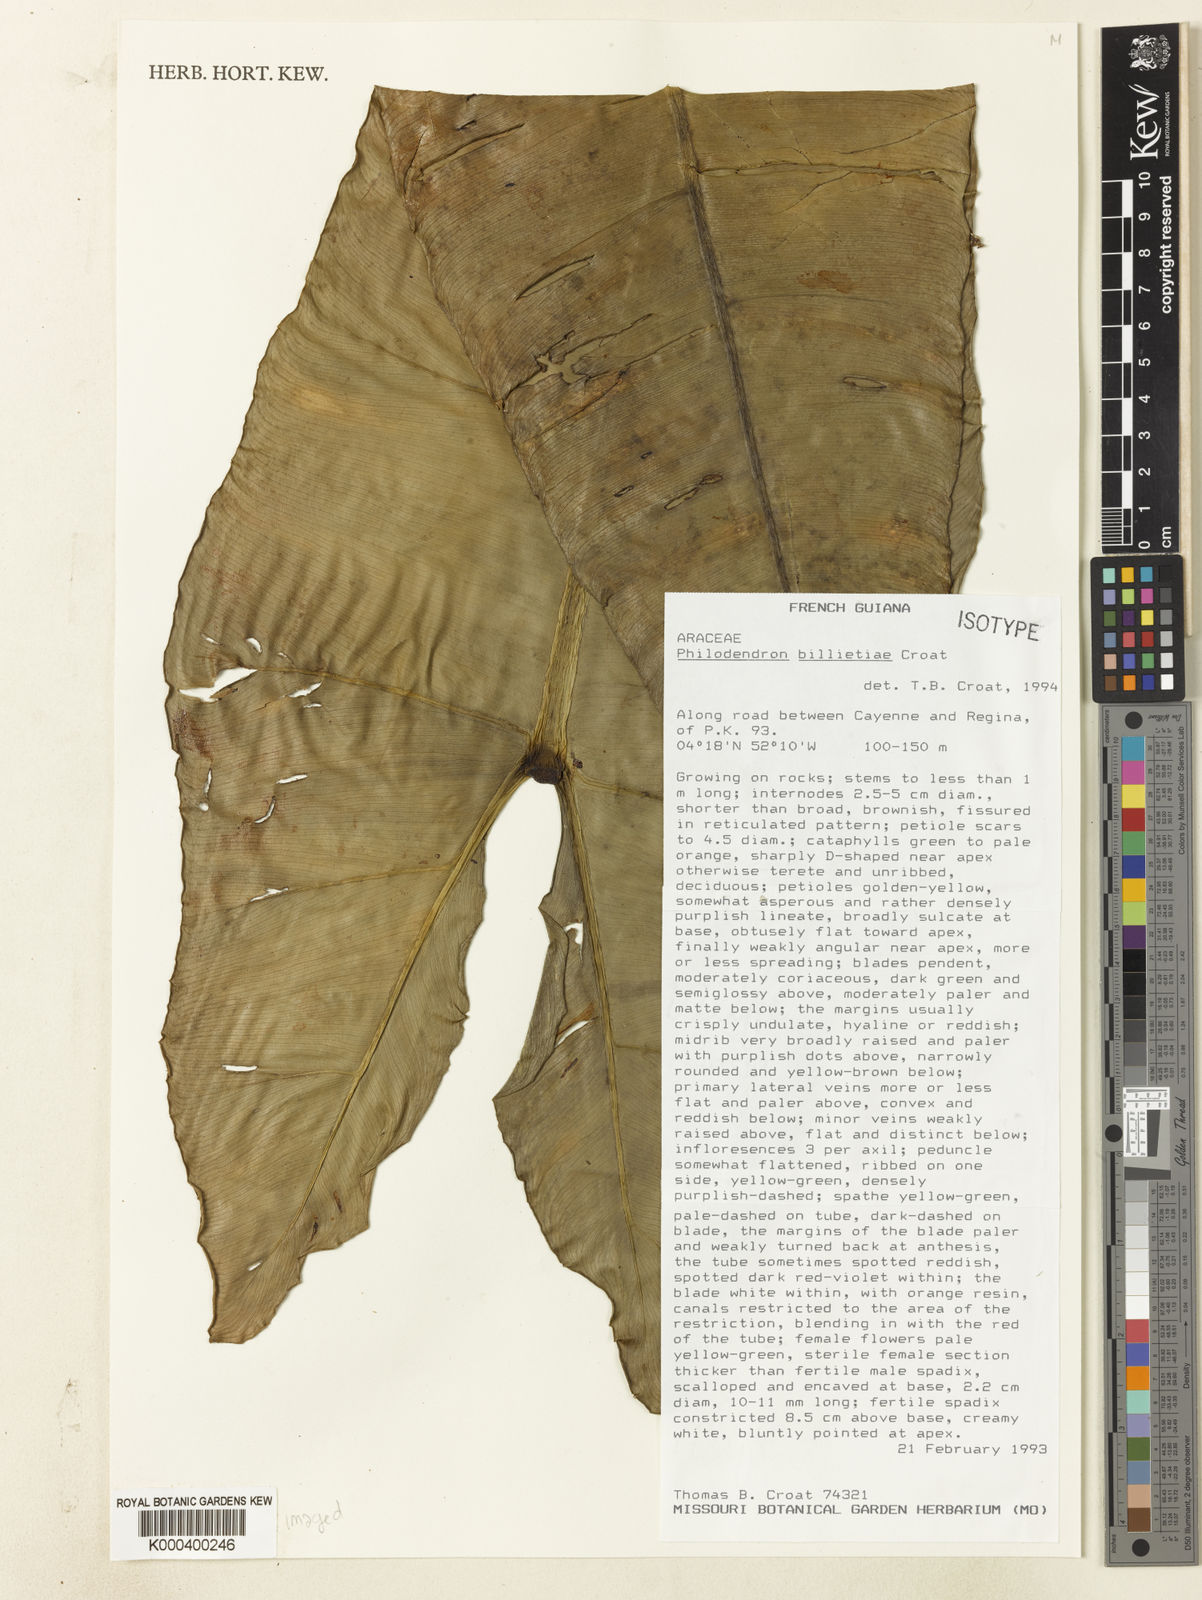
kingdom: Plantae
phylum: Tracheophyta
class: Liliopsida
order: Alismatales
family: Araceae
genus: Philodendron
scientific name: Philodendron billietiae
